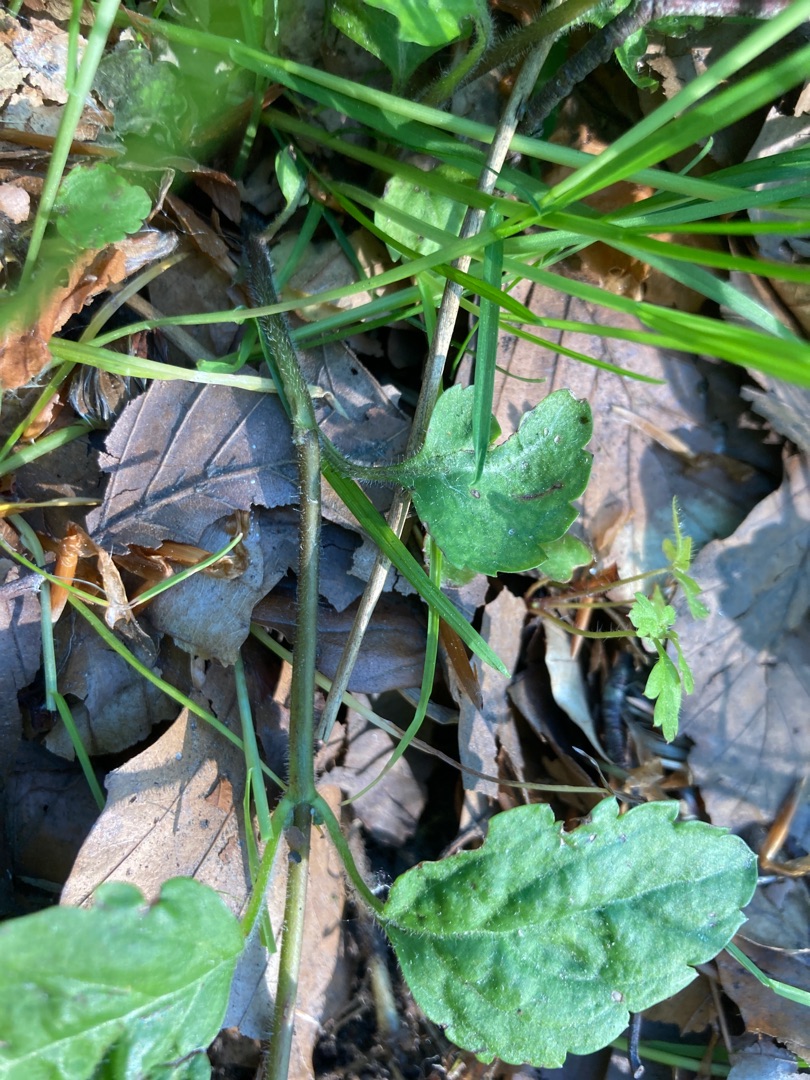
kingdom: Plantae
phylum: Tracheophyta
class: Magnoliopsida
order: Lamiales
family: Plantaginaceae
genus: Veronica
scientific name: Veronica montana
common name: Bjerg-ærenpris
